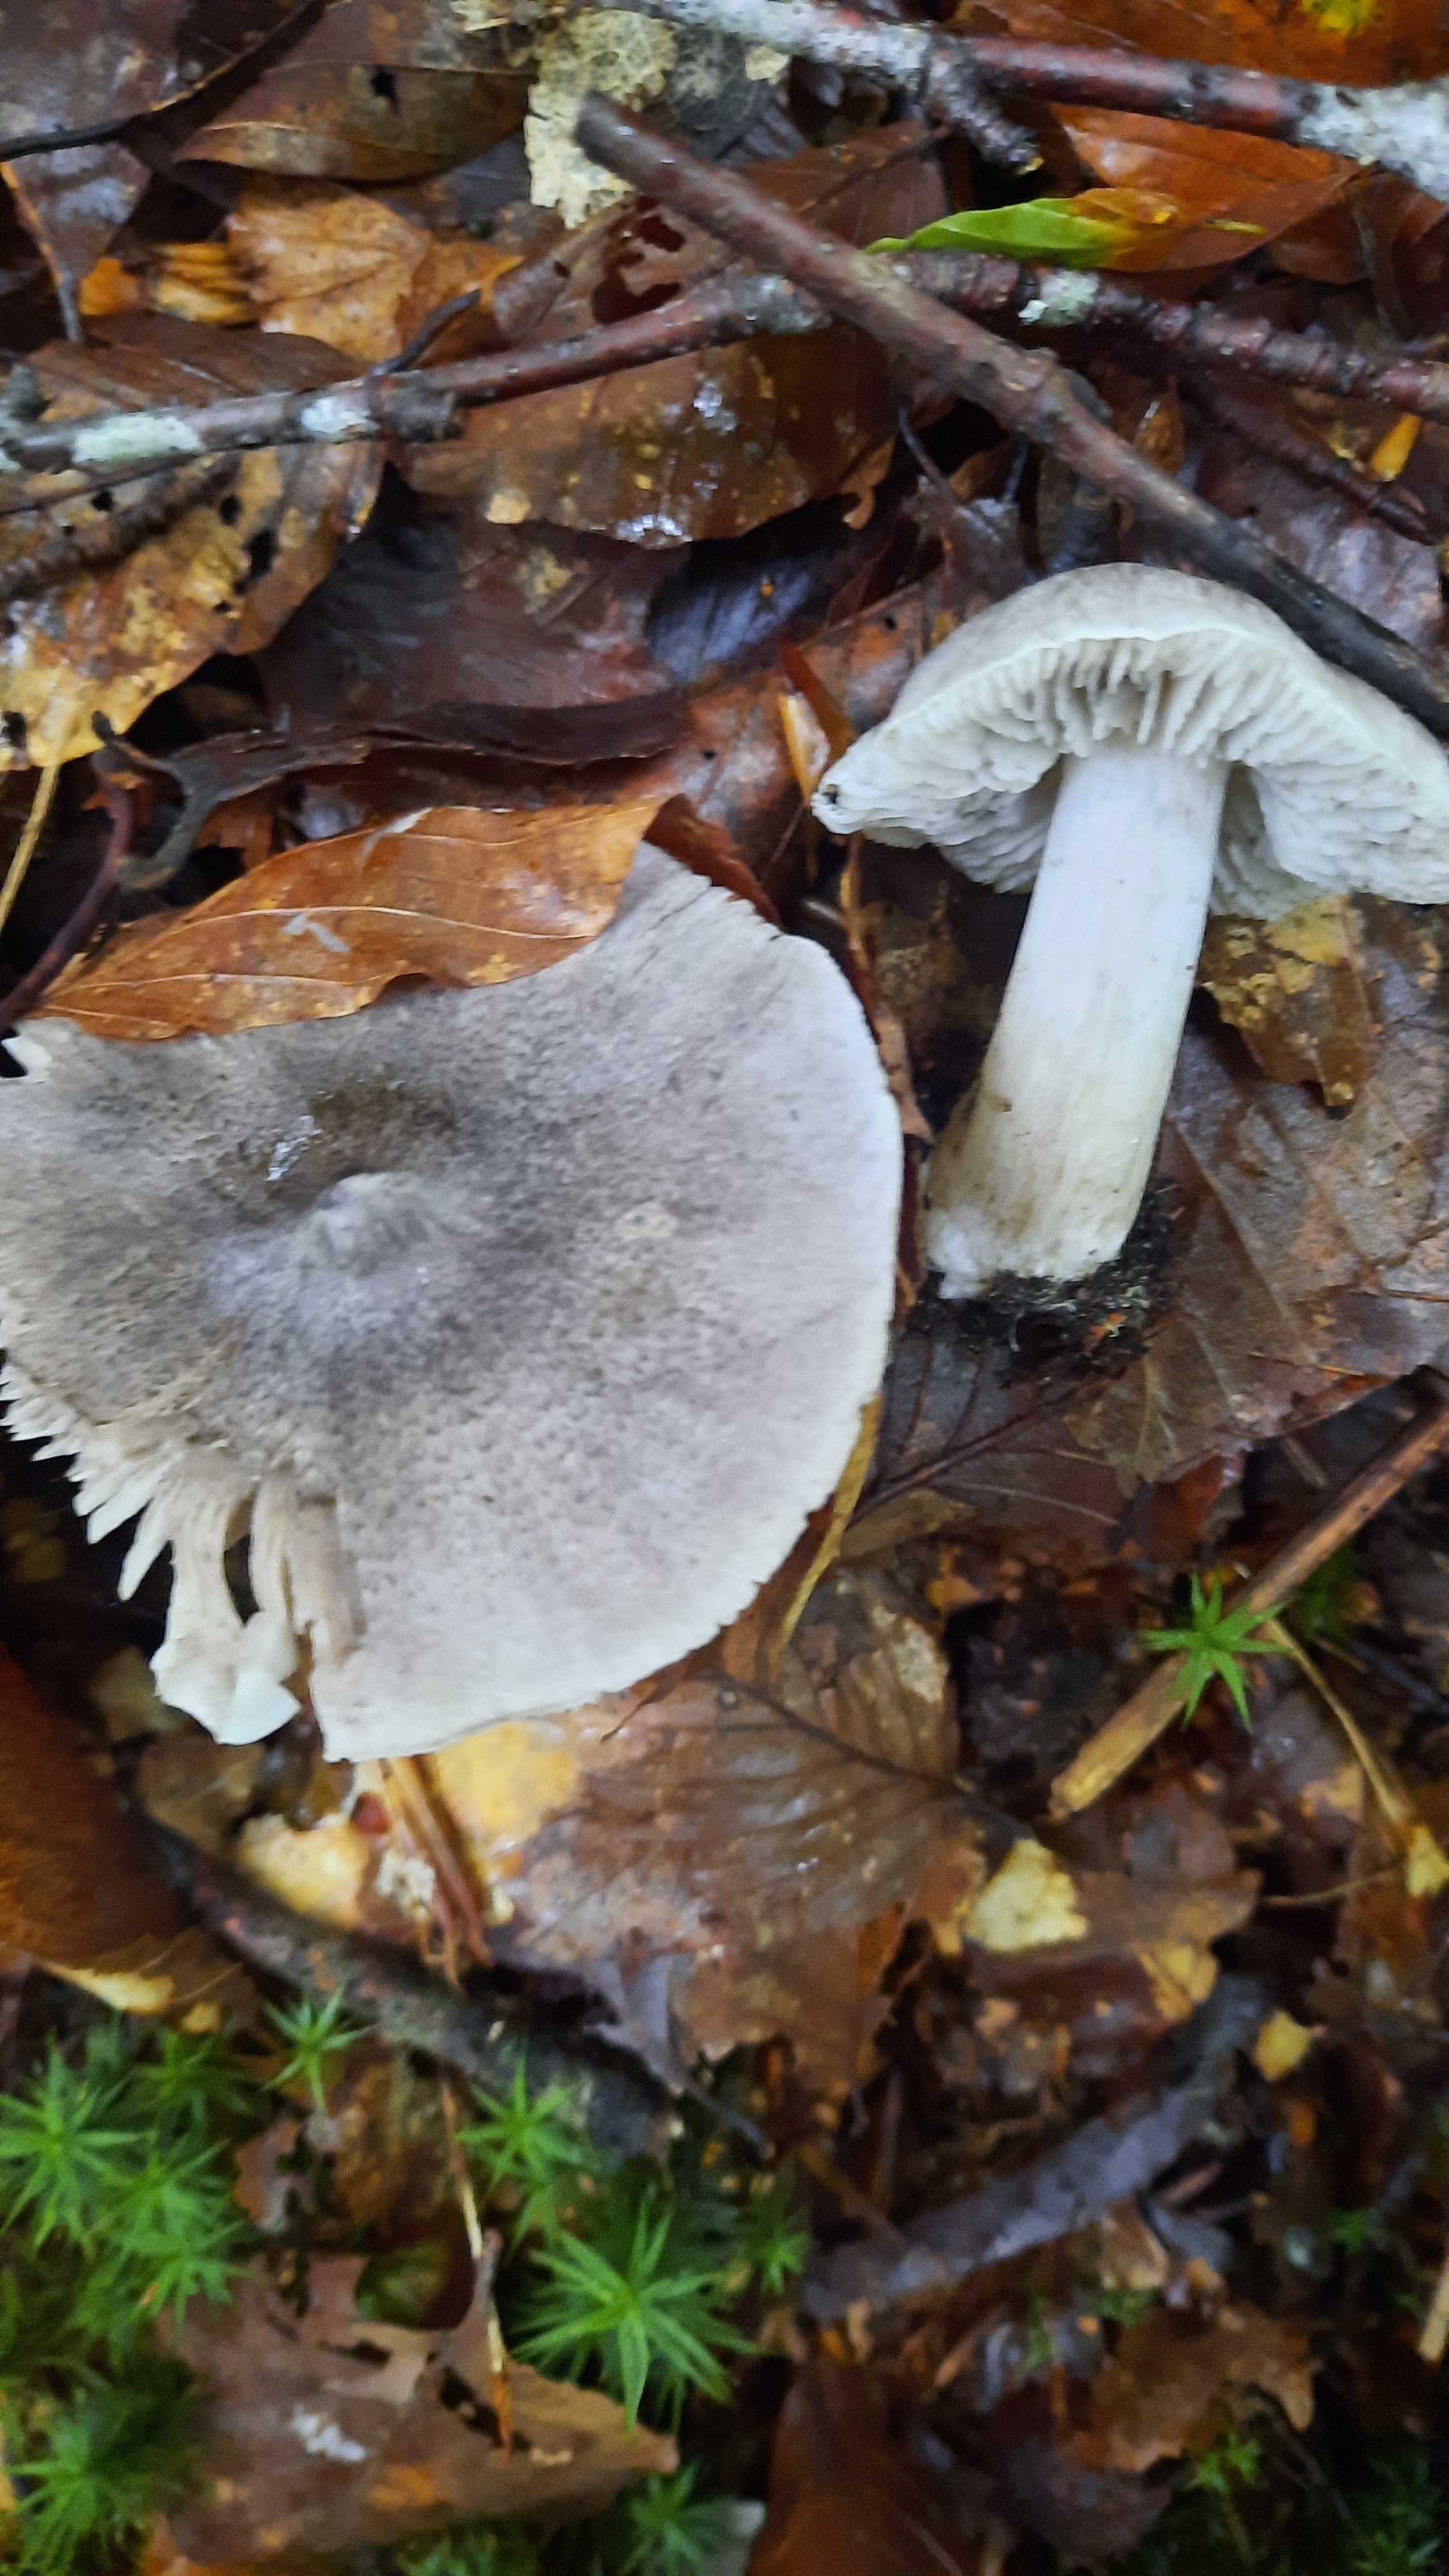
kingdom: Fungi
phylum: Basidiomycota
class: Agaricomycetes
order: Agaricales
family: Tricholomataceae
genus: Tricholoma
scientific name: Tricholoma
